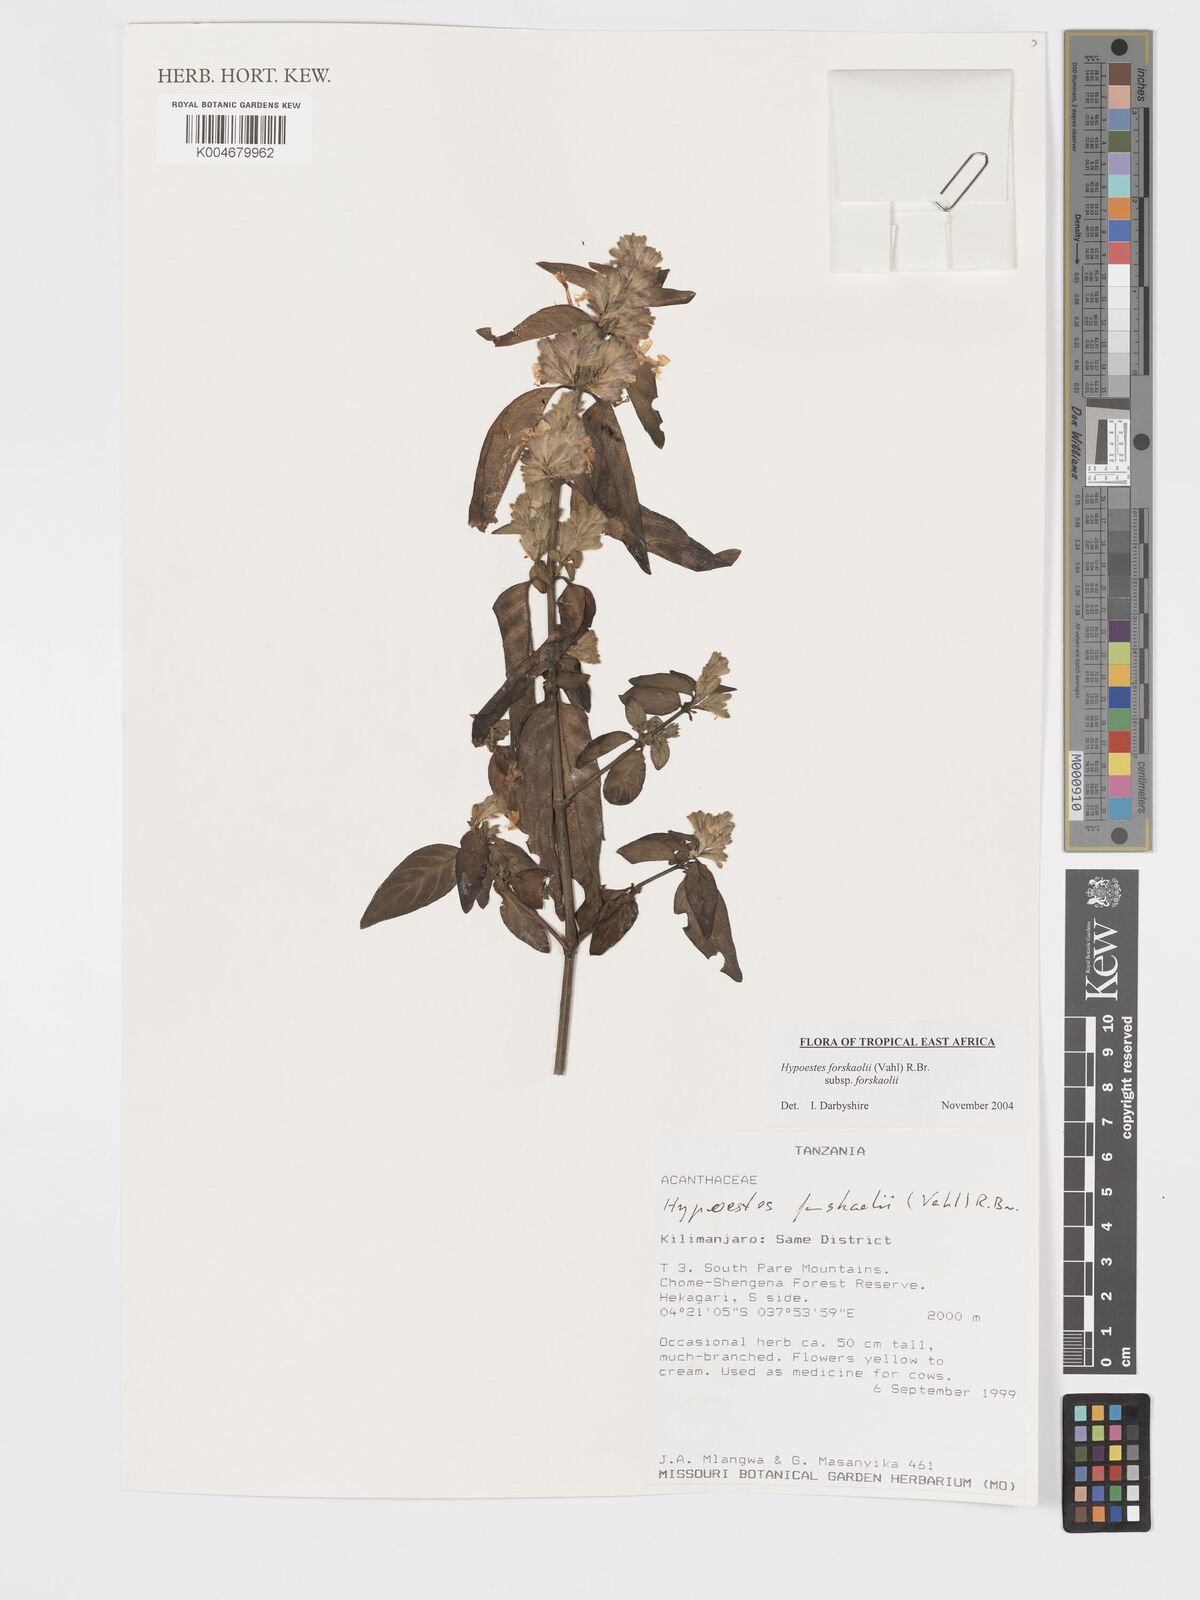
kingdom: Plantae
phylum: Tracheophyta
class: Magnoliopsida
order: Lamiales
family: Acanthaceae
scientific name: Acanthaceae
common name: Acanthaceae
